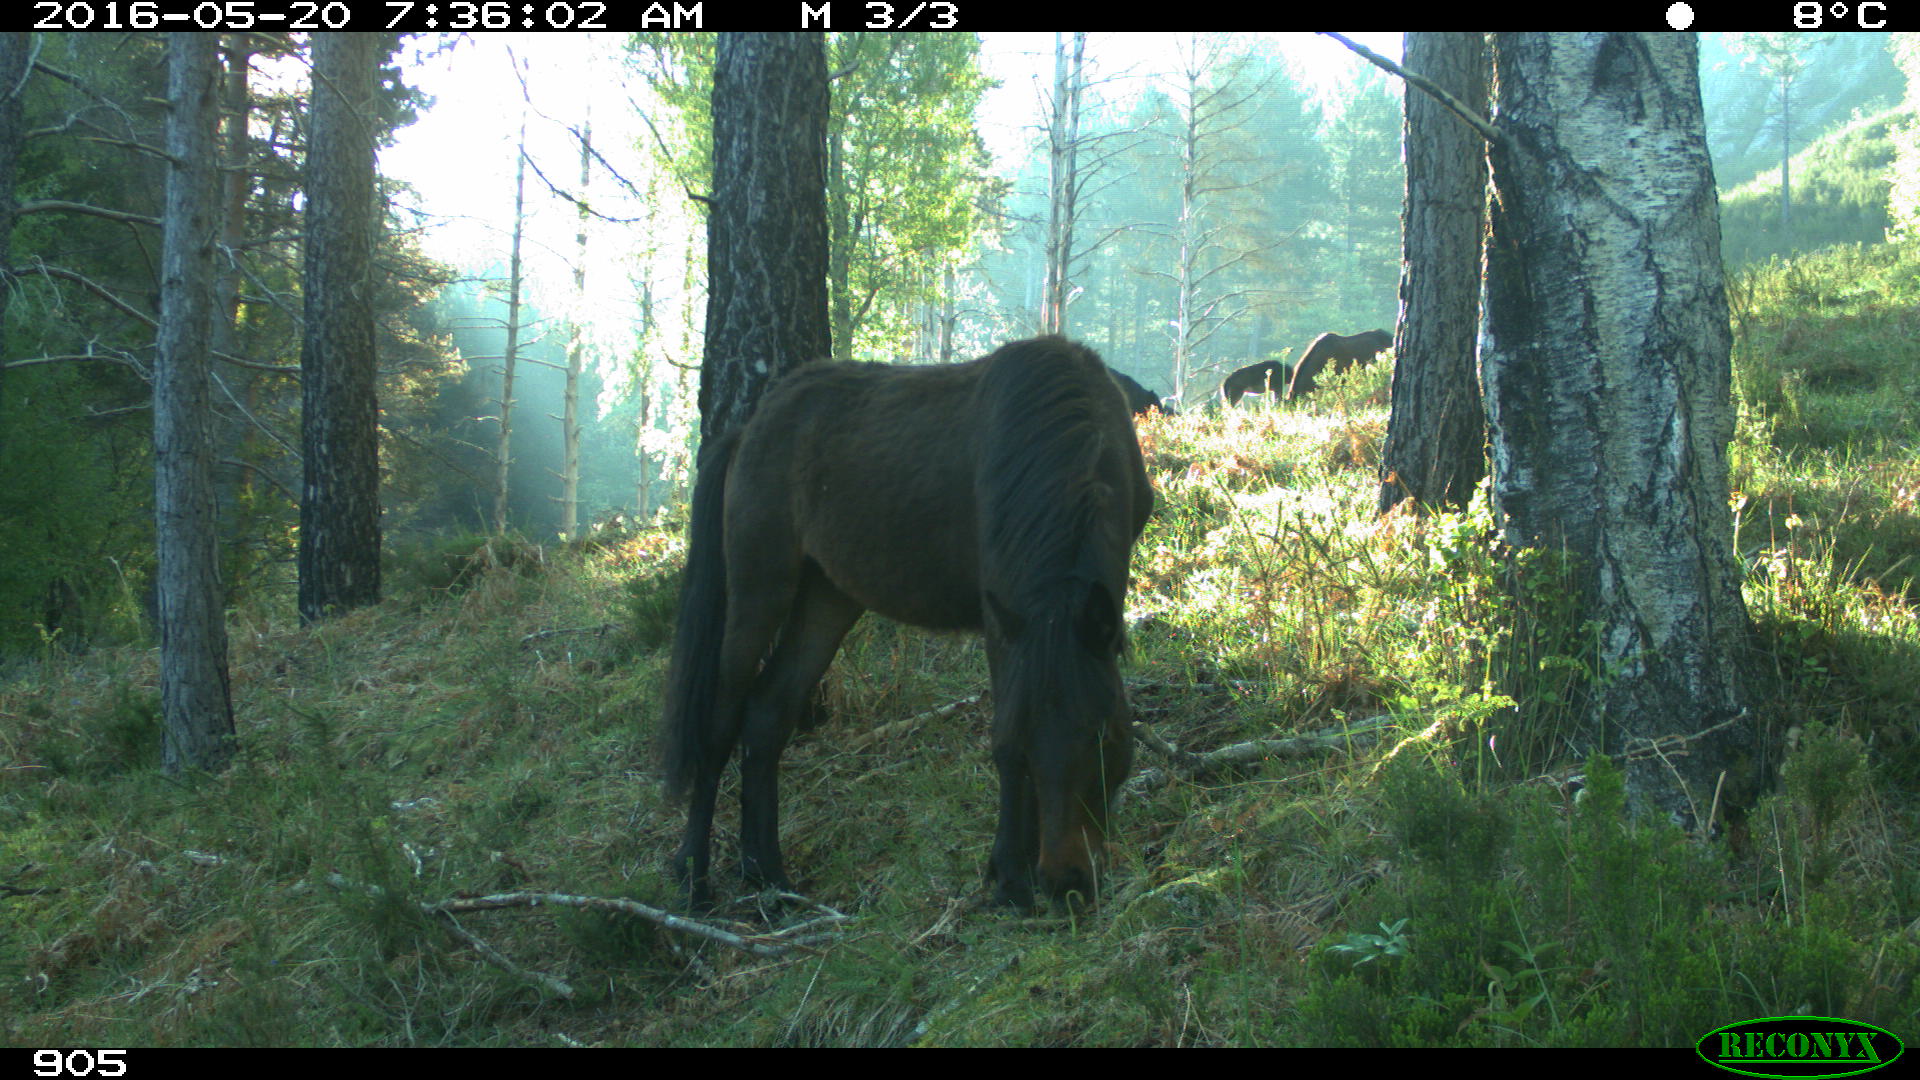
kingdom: Animalia
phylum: Chordata
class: Mammalia
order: Perissodactyla
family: Equidae
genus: Equus
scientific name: Equus caballus
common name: Horse
